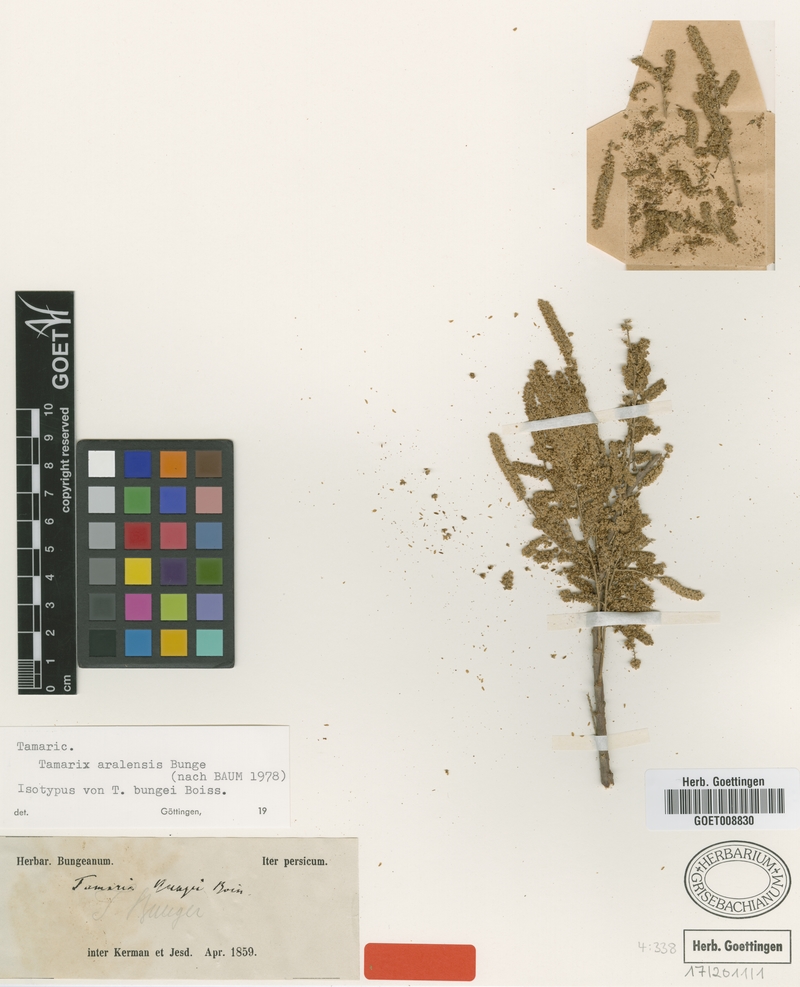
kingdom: Plantae
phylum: Tracheophyta
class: Magnoliopsida
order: Caryophyllales
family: Tamaricaceae
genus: Tamarix
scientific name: Tamarix aralensis
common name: Russian tamarisk
